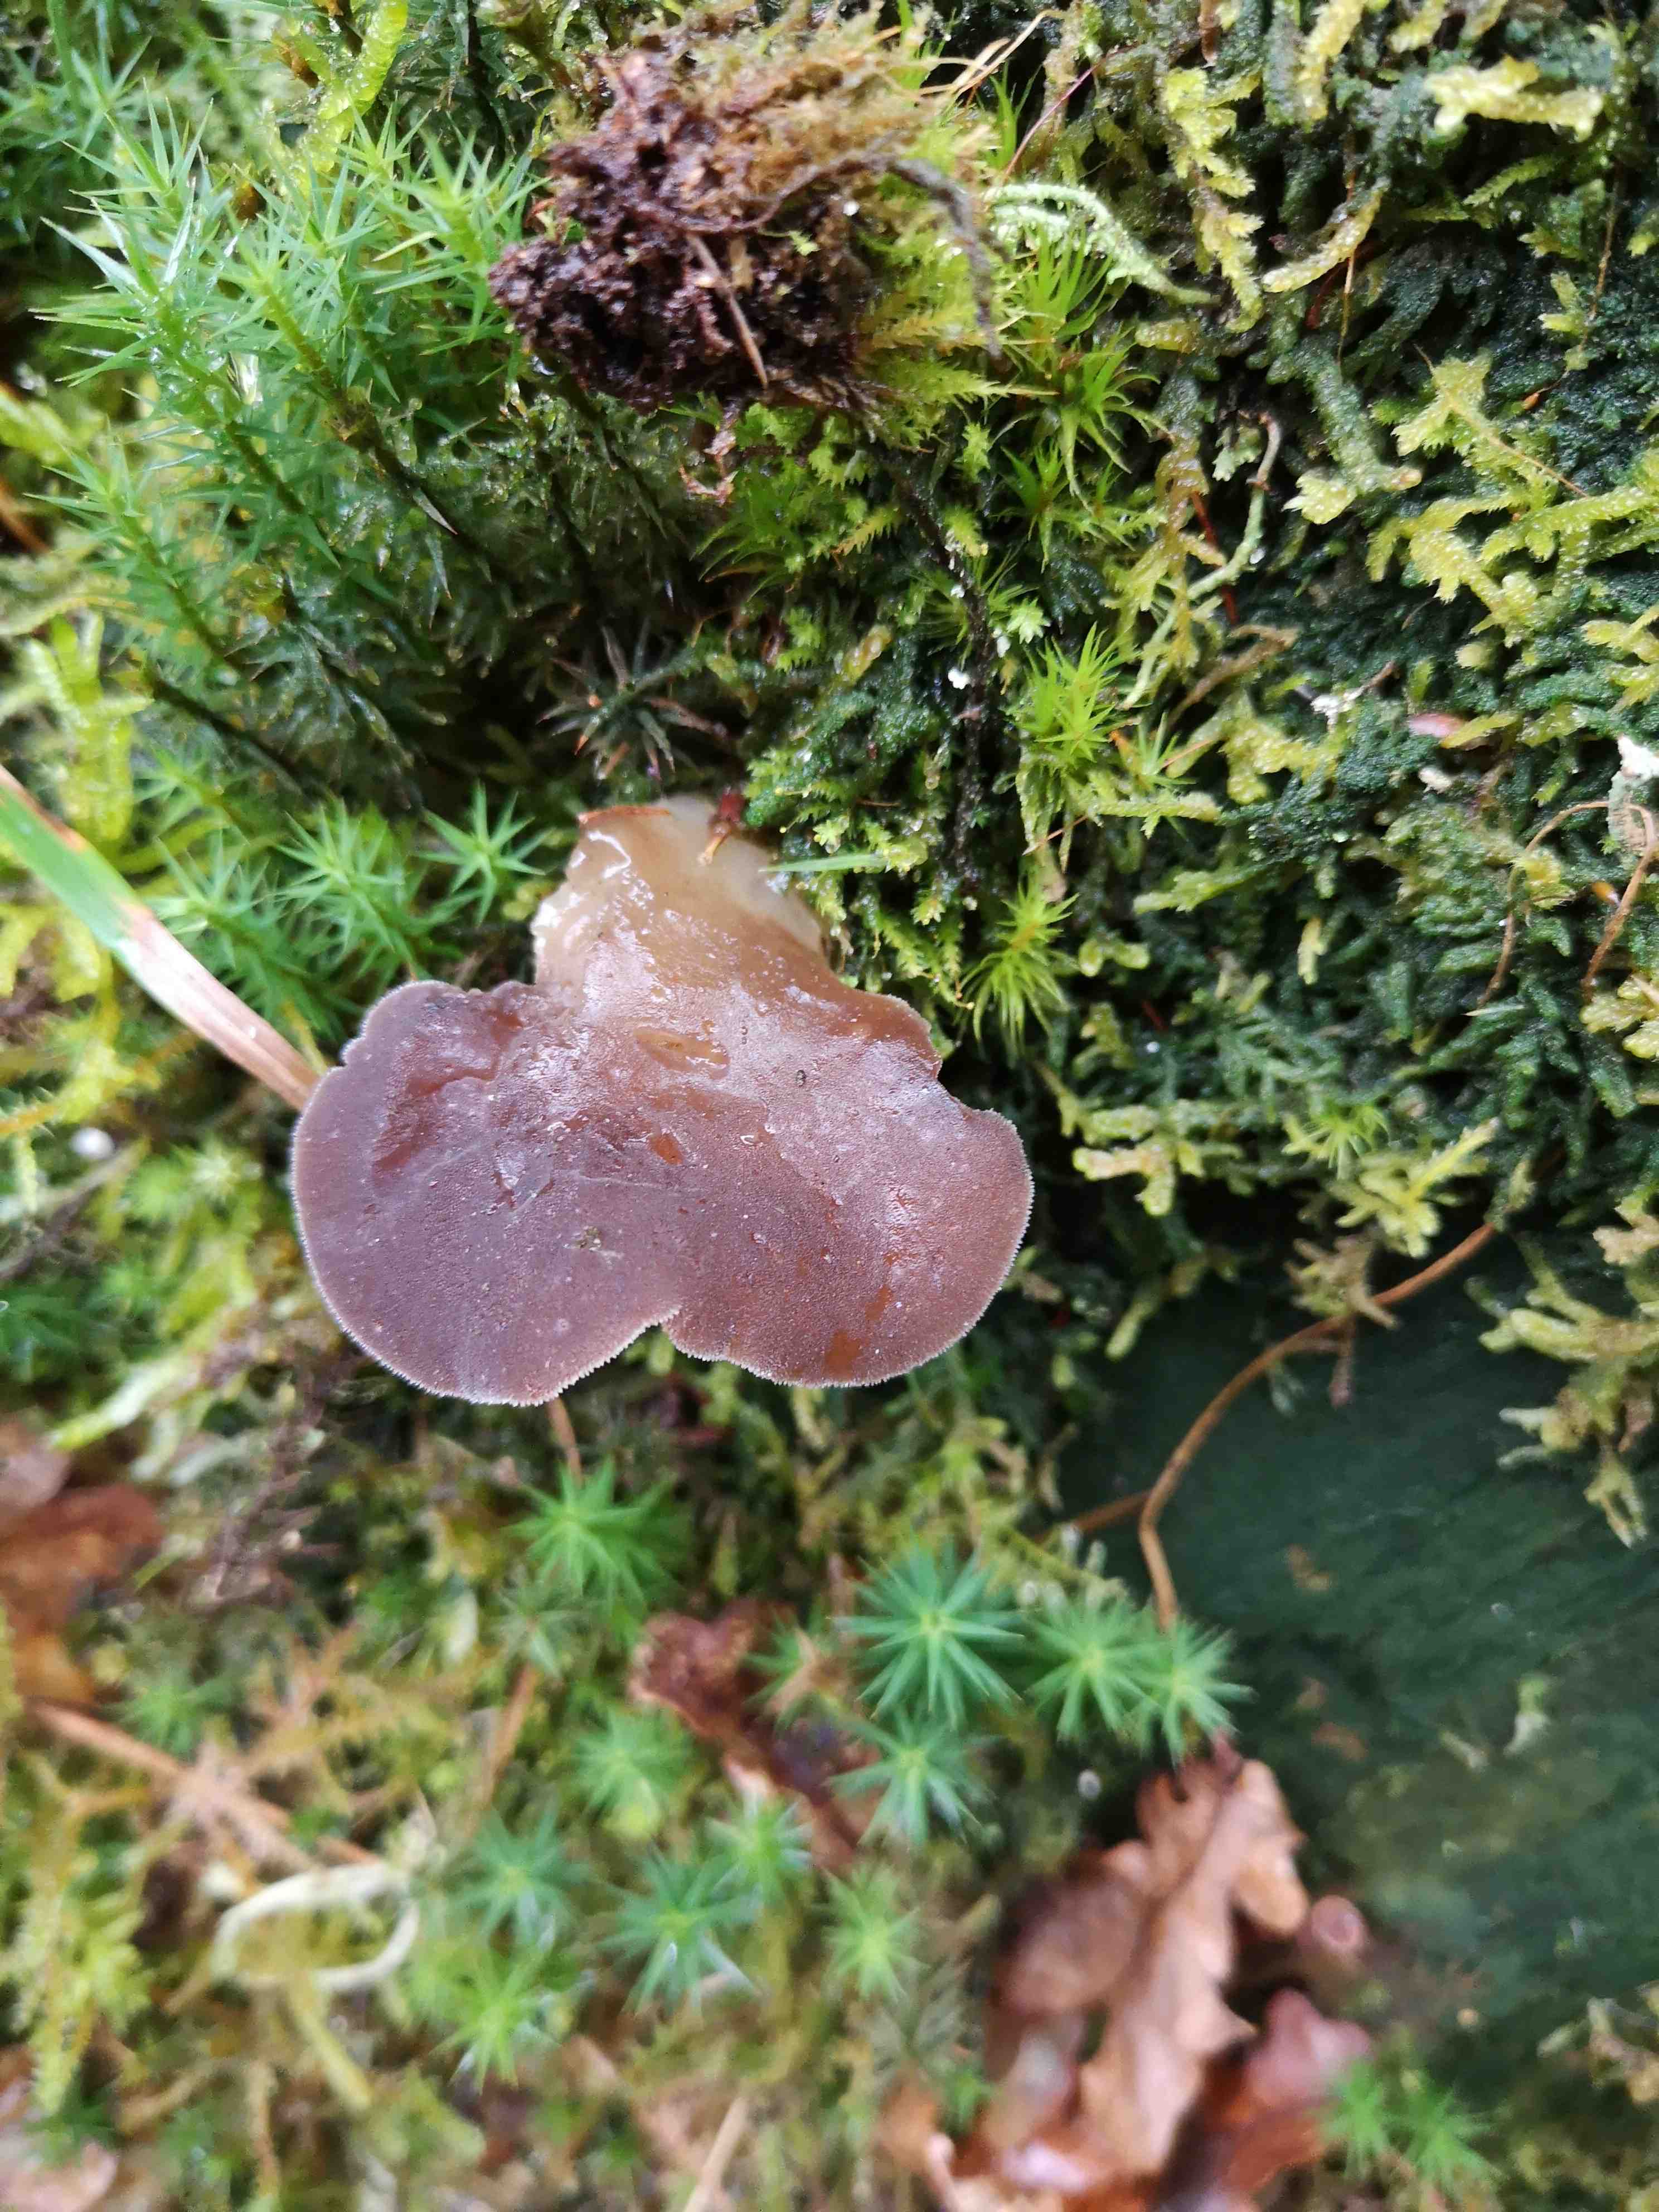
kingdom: Fungi
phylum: Basidiomycota
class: Agaricomycetes
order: Auriculariales
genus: Pseudohydnum
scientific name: Pseudohydnum gelatinosum
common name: bævretand
